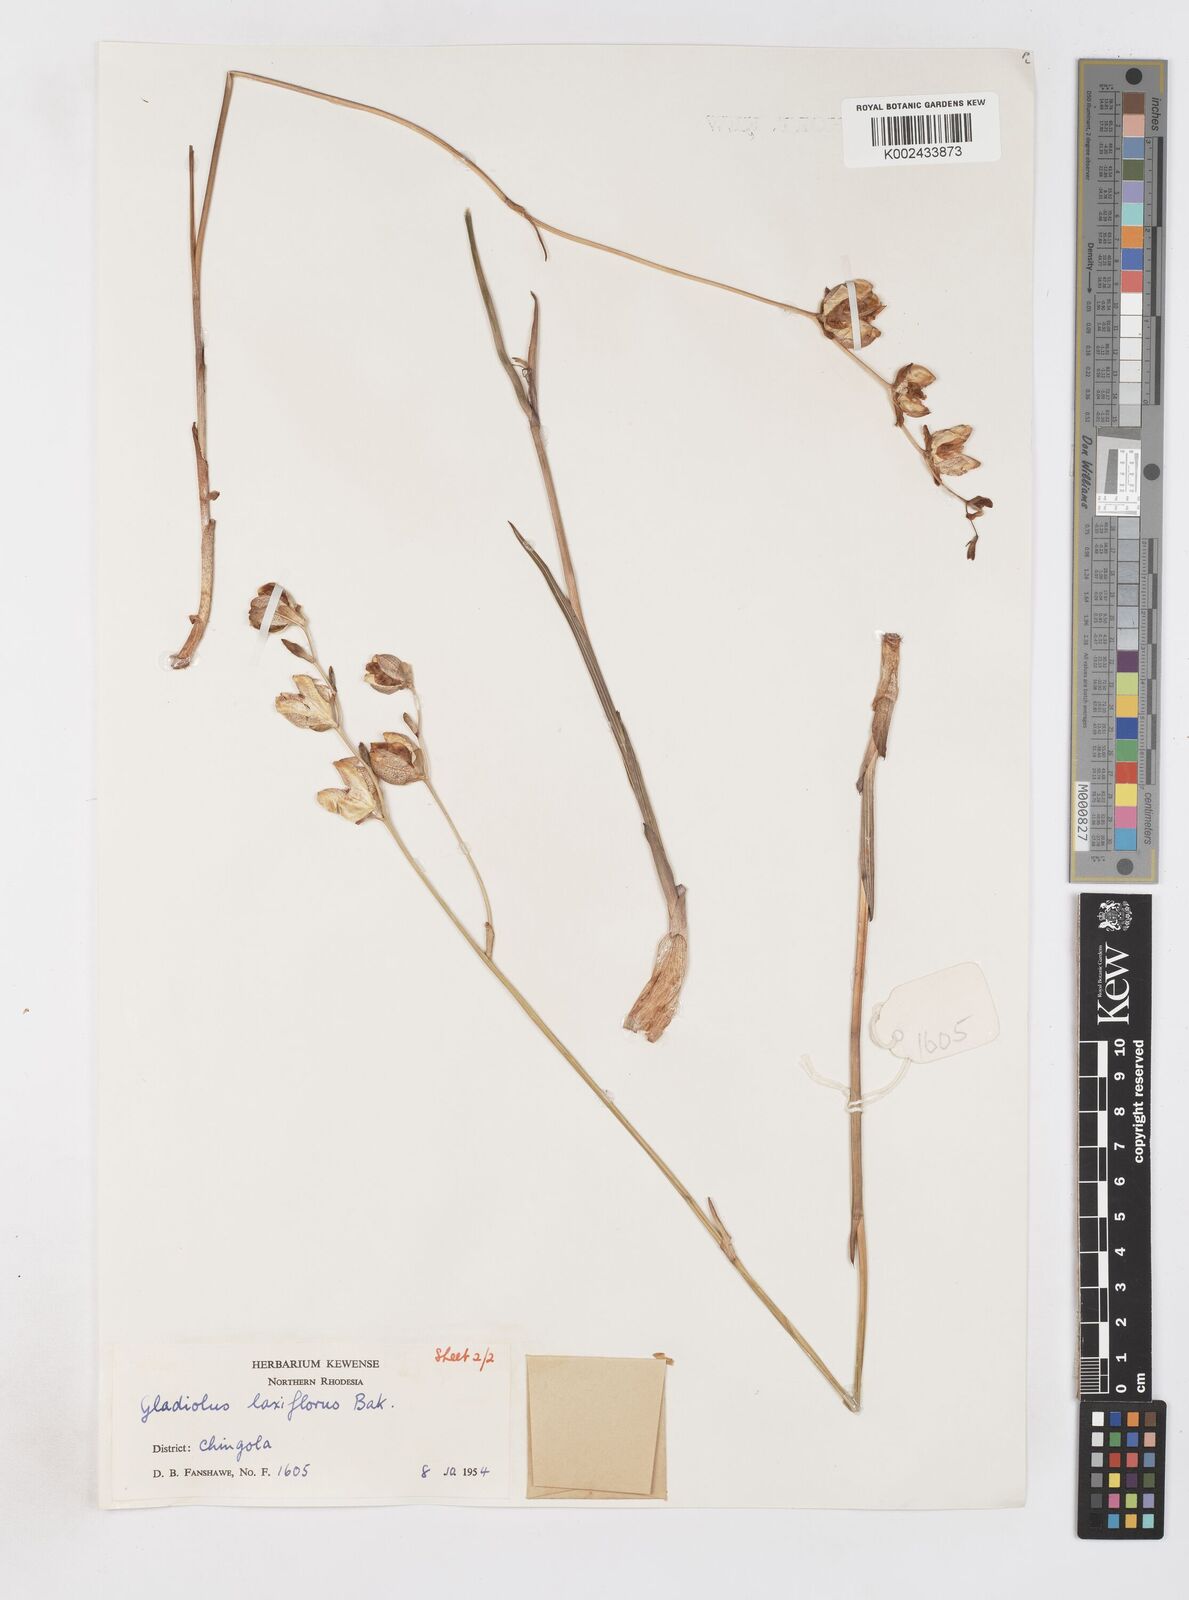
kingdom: Plantae
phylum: Tracheophyta
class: Liliopsida
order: Asparagales
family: Iridaceae
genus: Gladiolus
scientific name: Gladiolus laxiflorus
